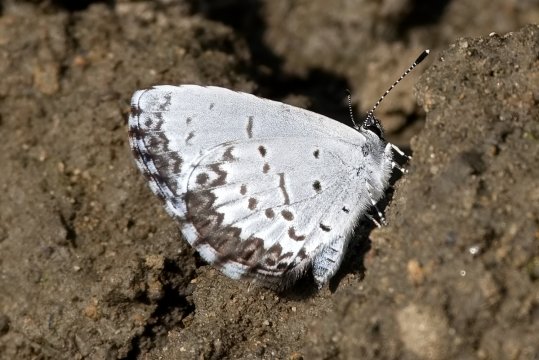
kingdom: Animalia
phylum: Arthropoda
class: Insecta
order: Lepidoptera
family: Lycaenidae
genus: Celastrina
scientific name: Celastrina lucia
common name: Northern Spring Azure
